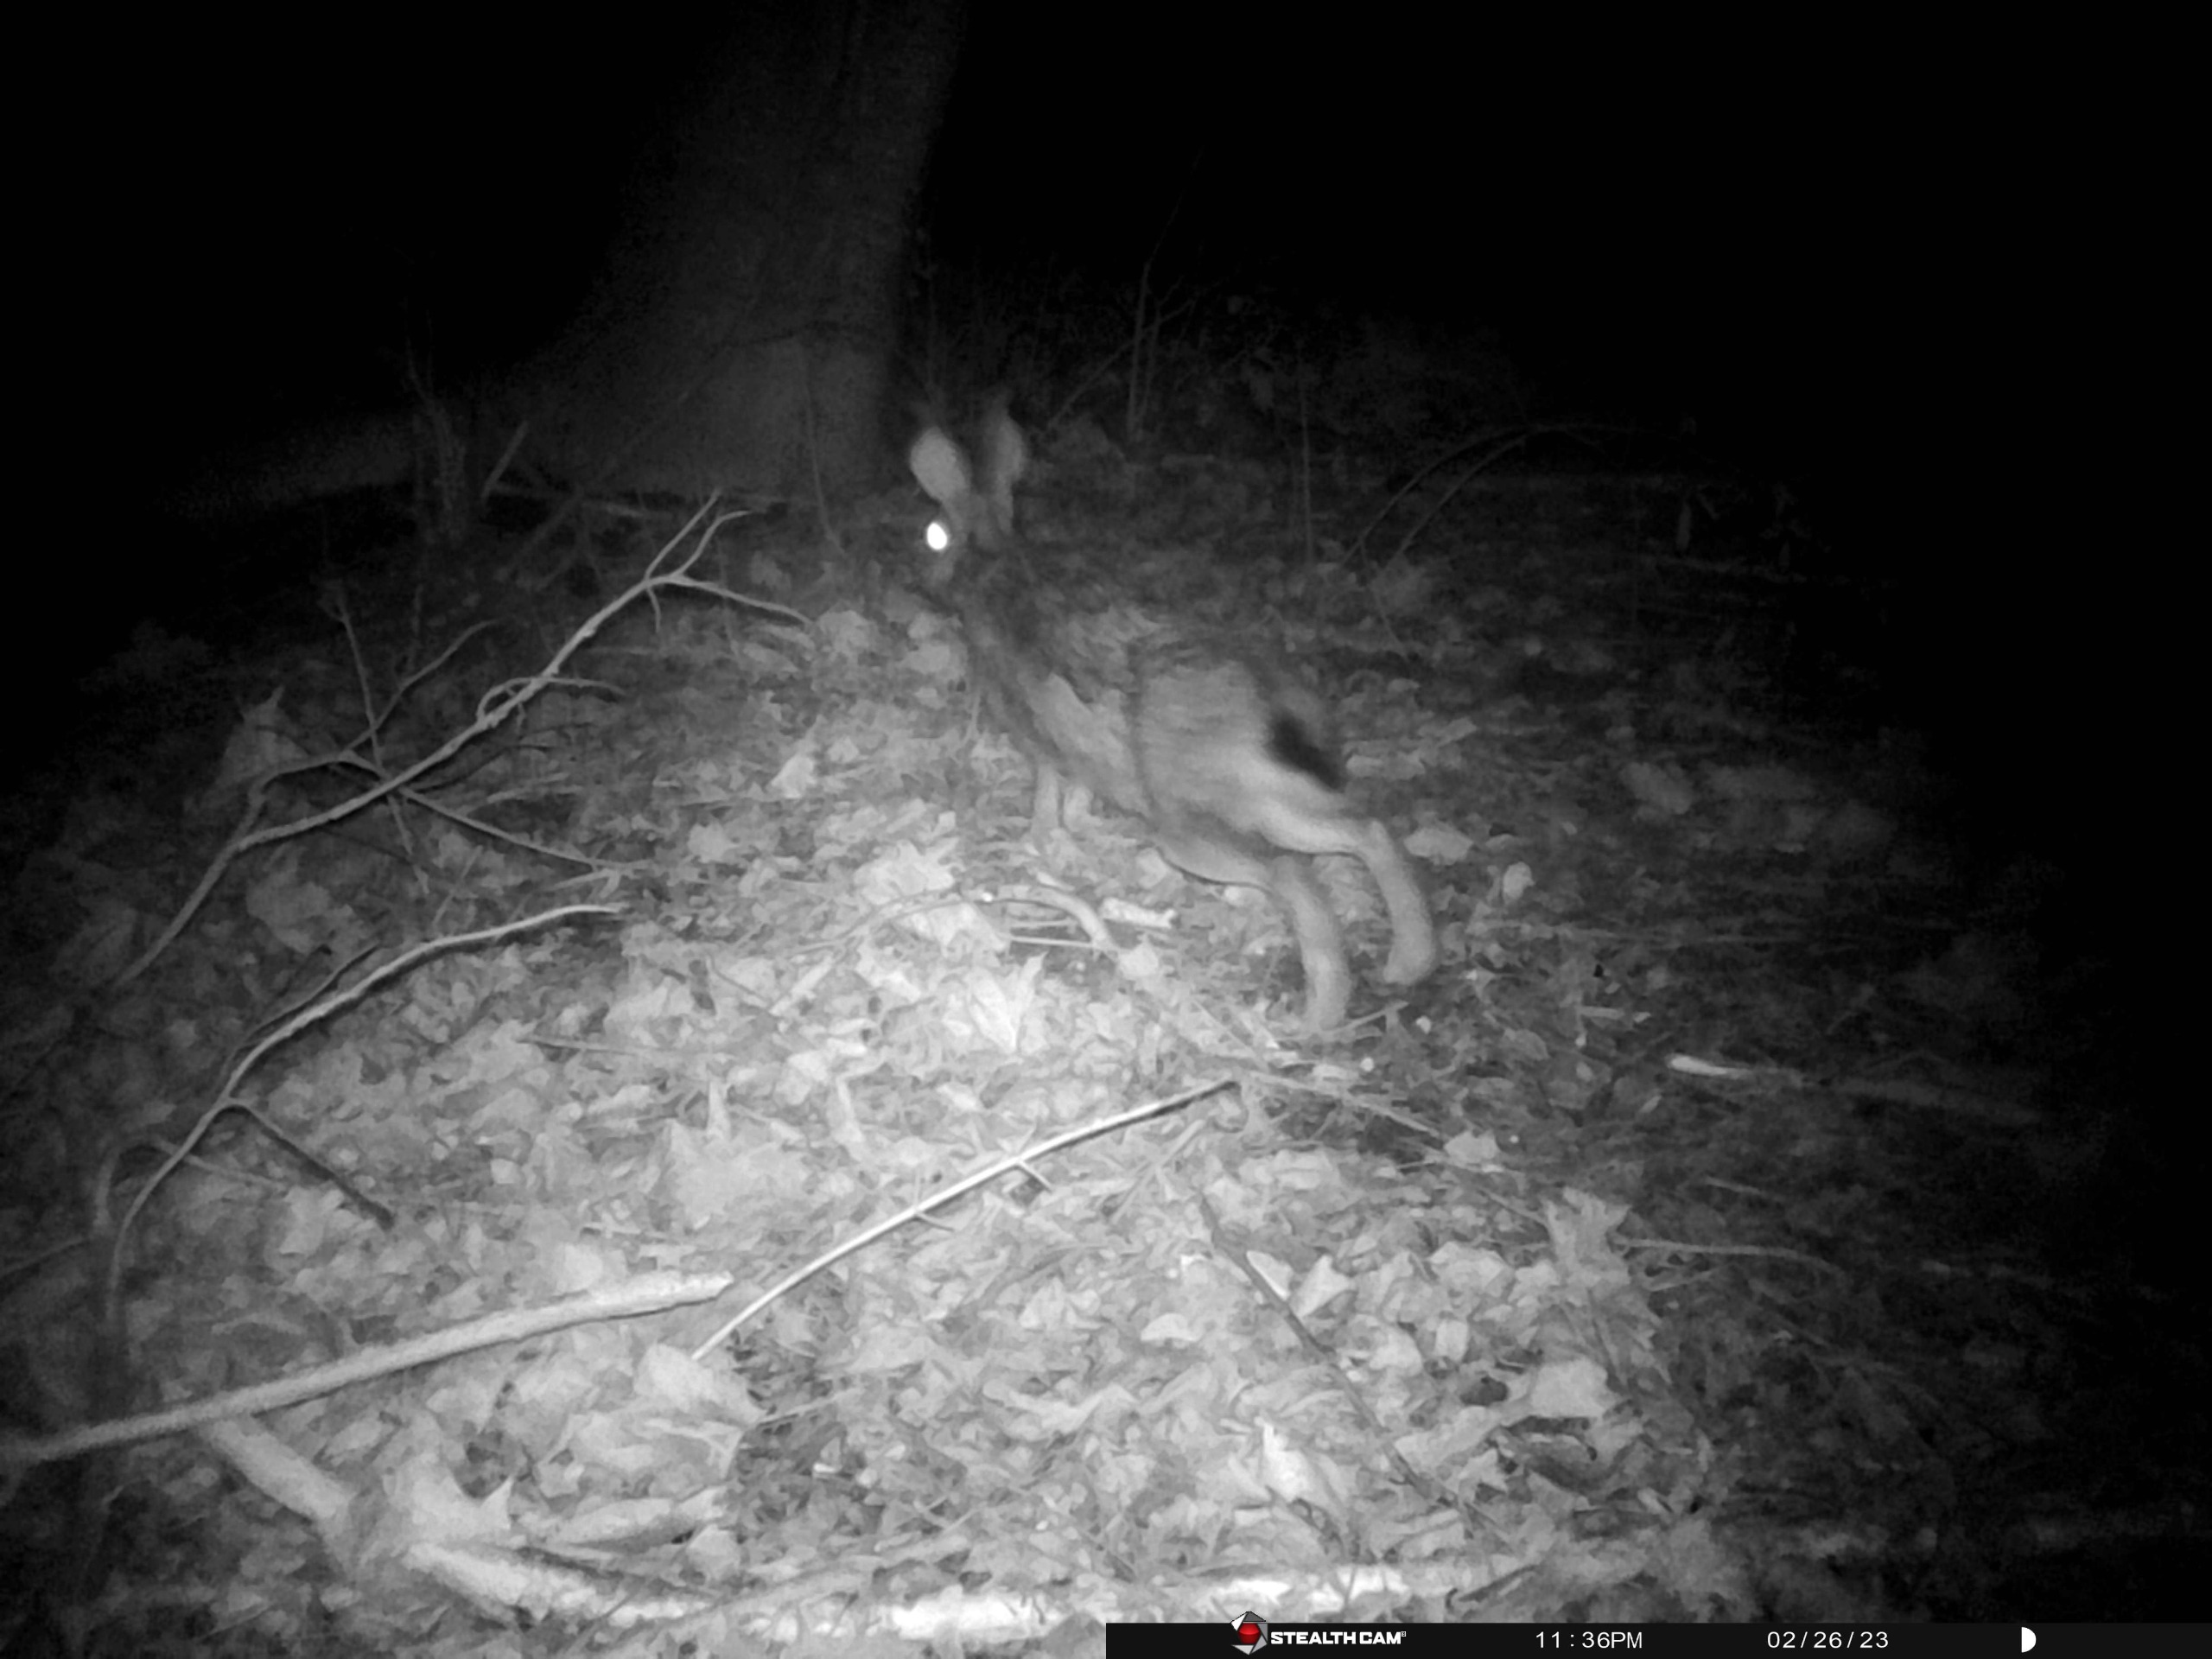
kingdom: Animalia
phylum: Chordata
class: Mammalia
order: Lagomorpha
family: Leporidae
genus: Lepus
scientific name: Lepus europaeus
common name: Hare
